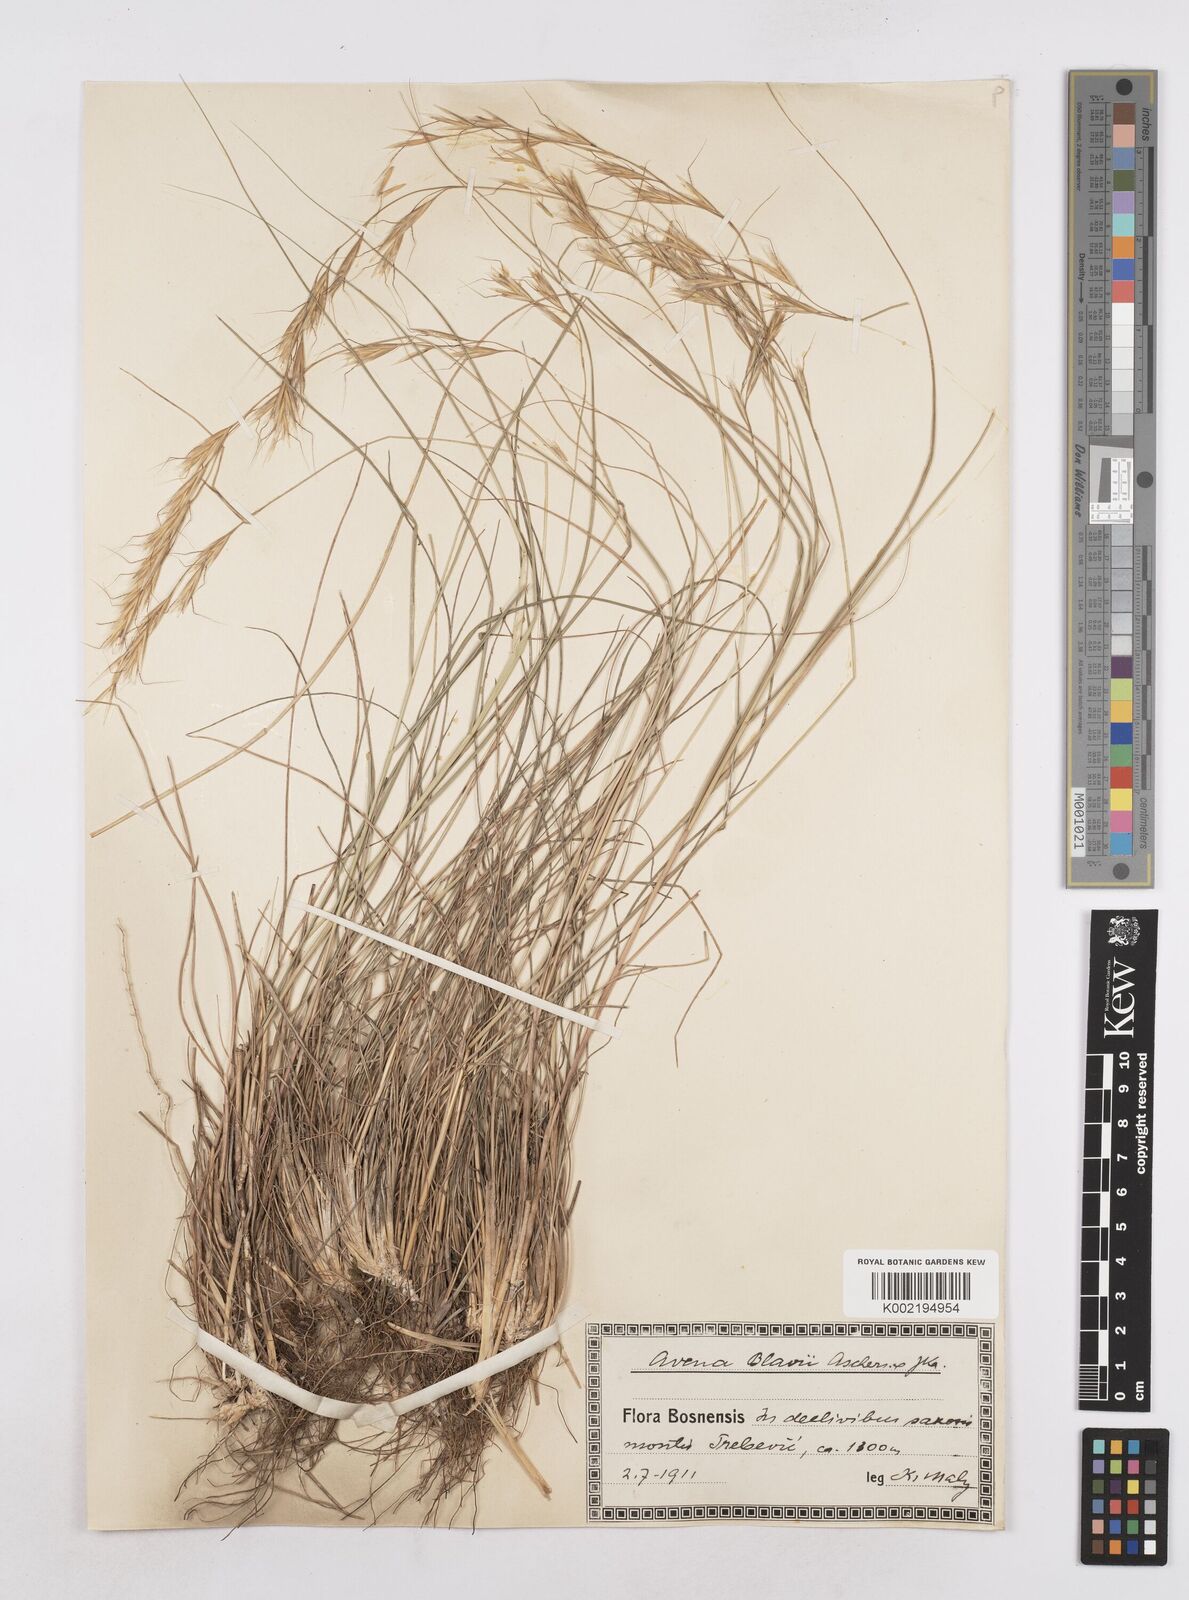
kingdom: Plantae
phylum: Tracheophyta
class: Liliopsida
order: Poales
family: Poaceae
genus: Helictochloa
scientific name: Helictochloa blaui
